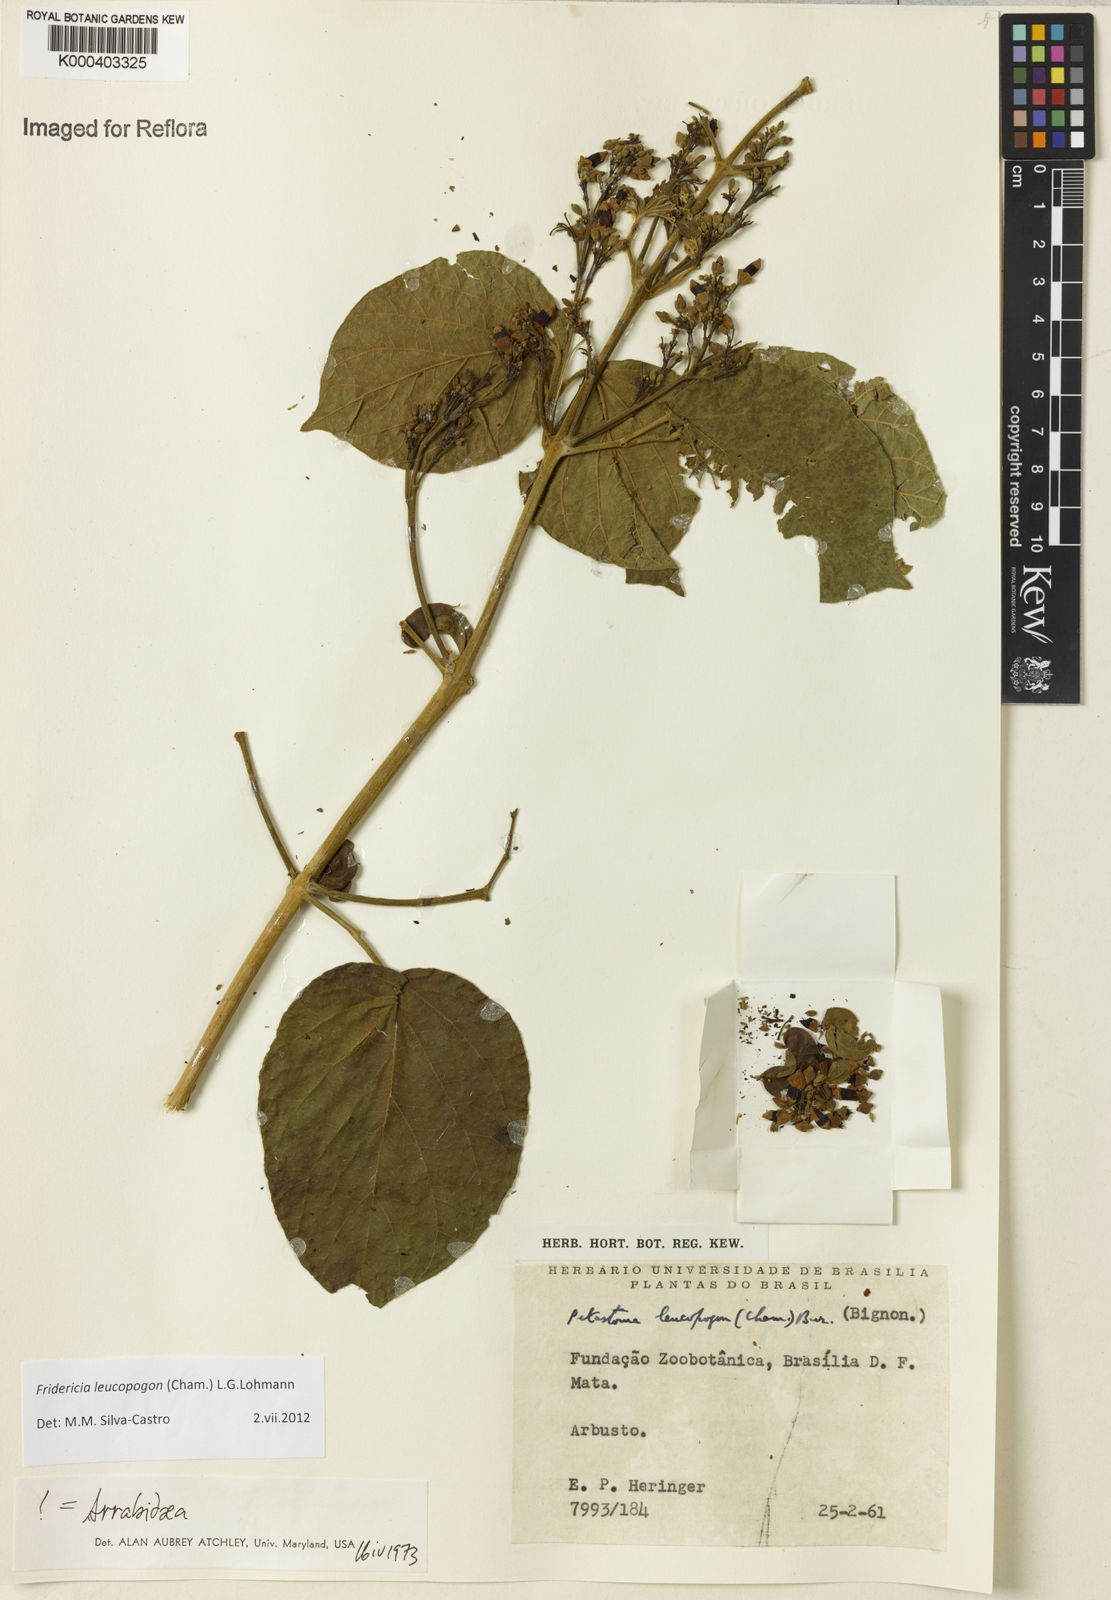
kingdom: Plantae
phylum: Tracheophyta
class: Magnoliopsida
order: Lamiales
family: Bignoniaceae
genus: Fridericia
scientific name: Fridericia leucopogon
